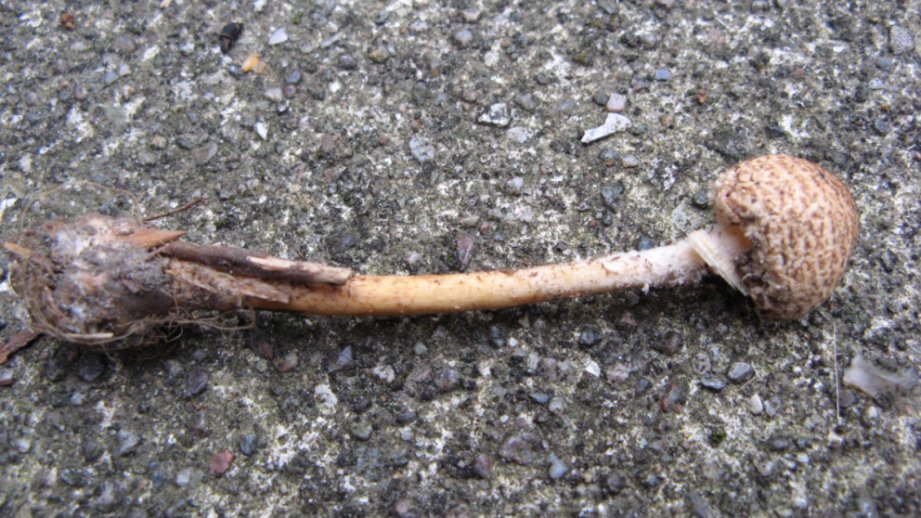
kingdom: Fungi
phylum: Basidiomycota
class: Agaricomycetes
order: Agaricales
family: Agaricaceae
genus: Lepiota
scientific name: Lepiota magnispora
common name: gulfnugget parasolhat
